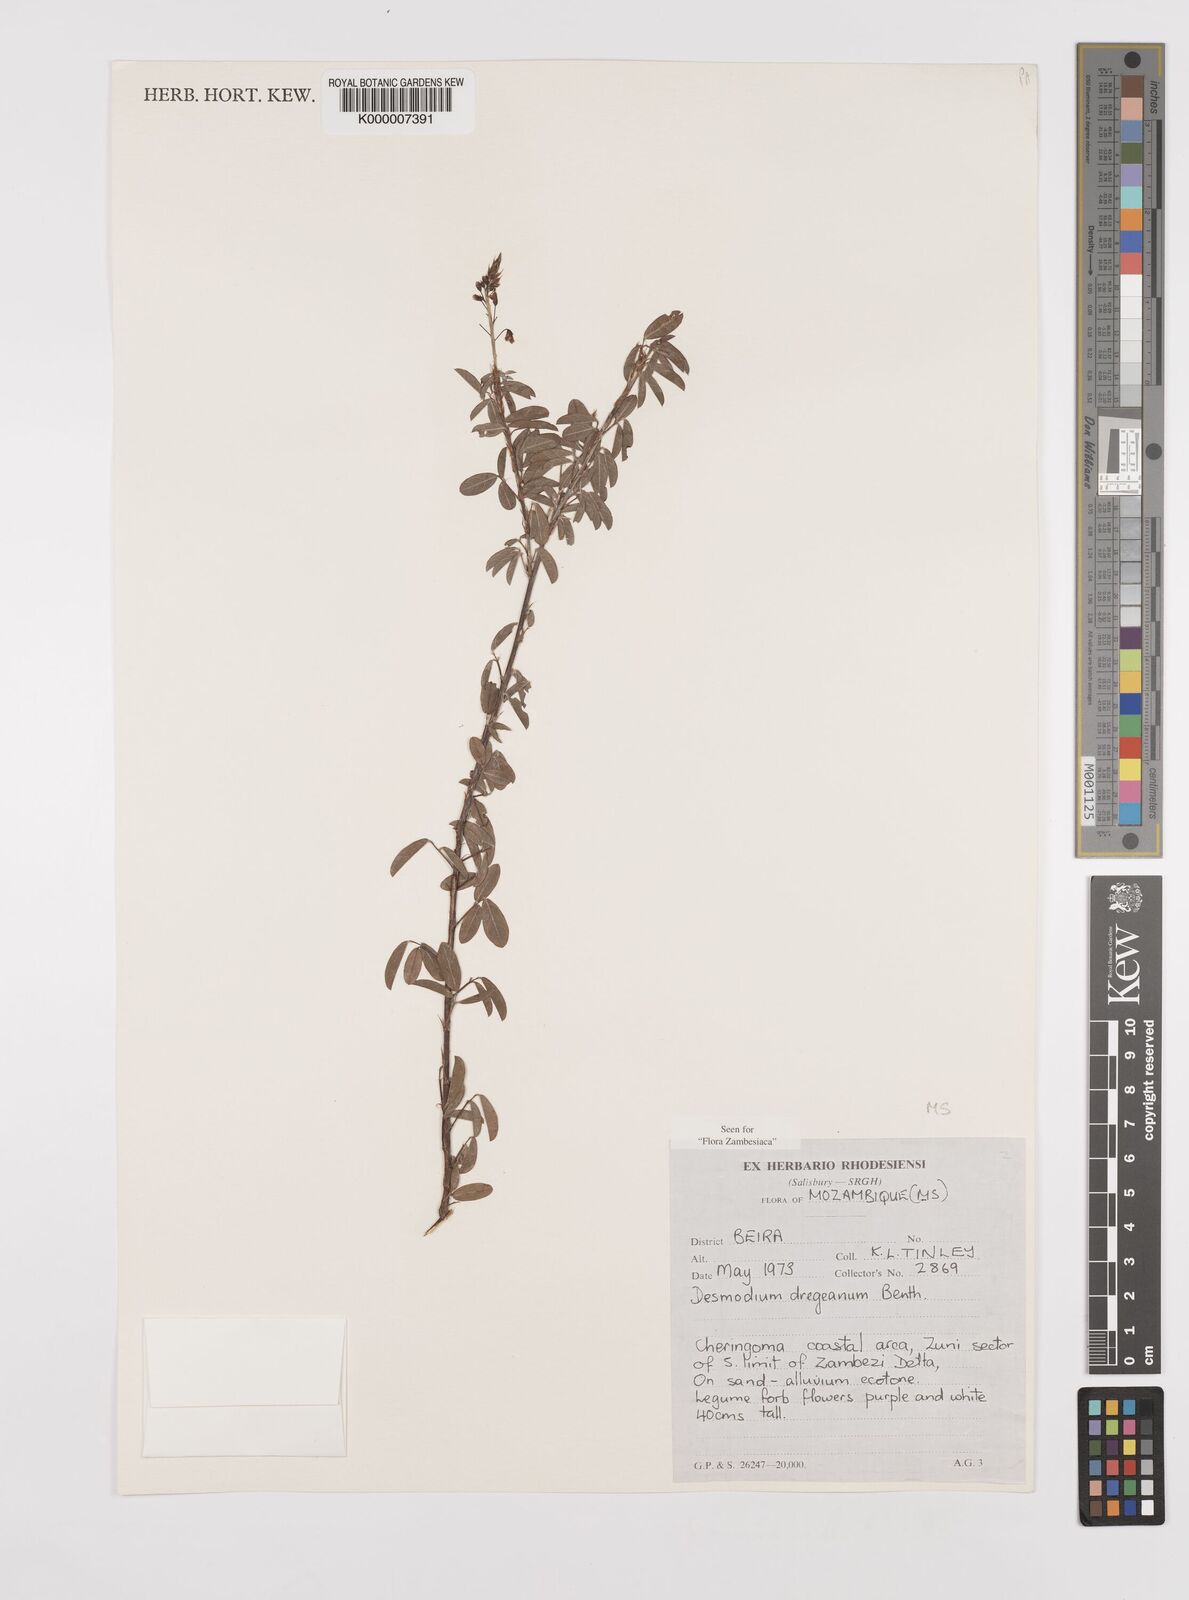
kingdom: Plantae
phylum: Tracheophyta
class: Magnoliopsida
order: Fabales
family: Fabaceae
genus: Grona
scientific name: Grona caffra
